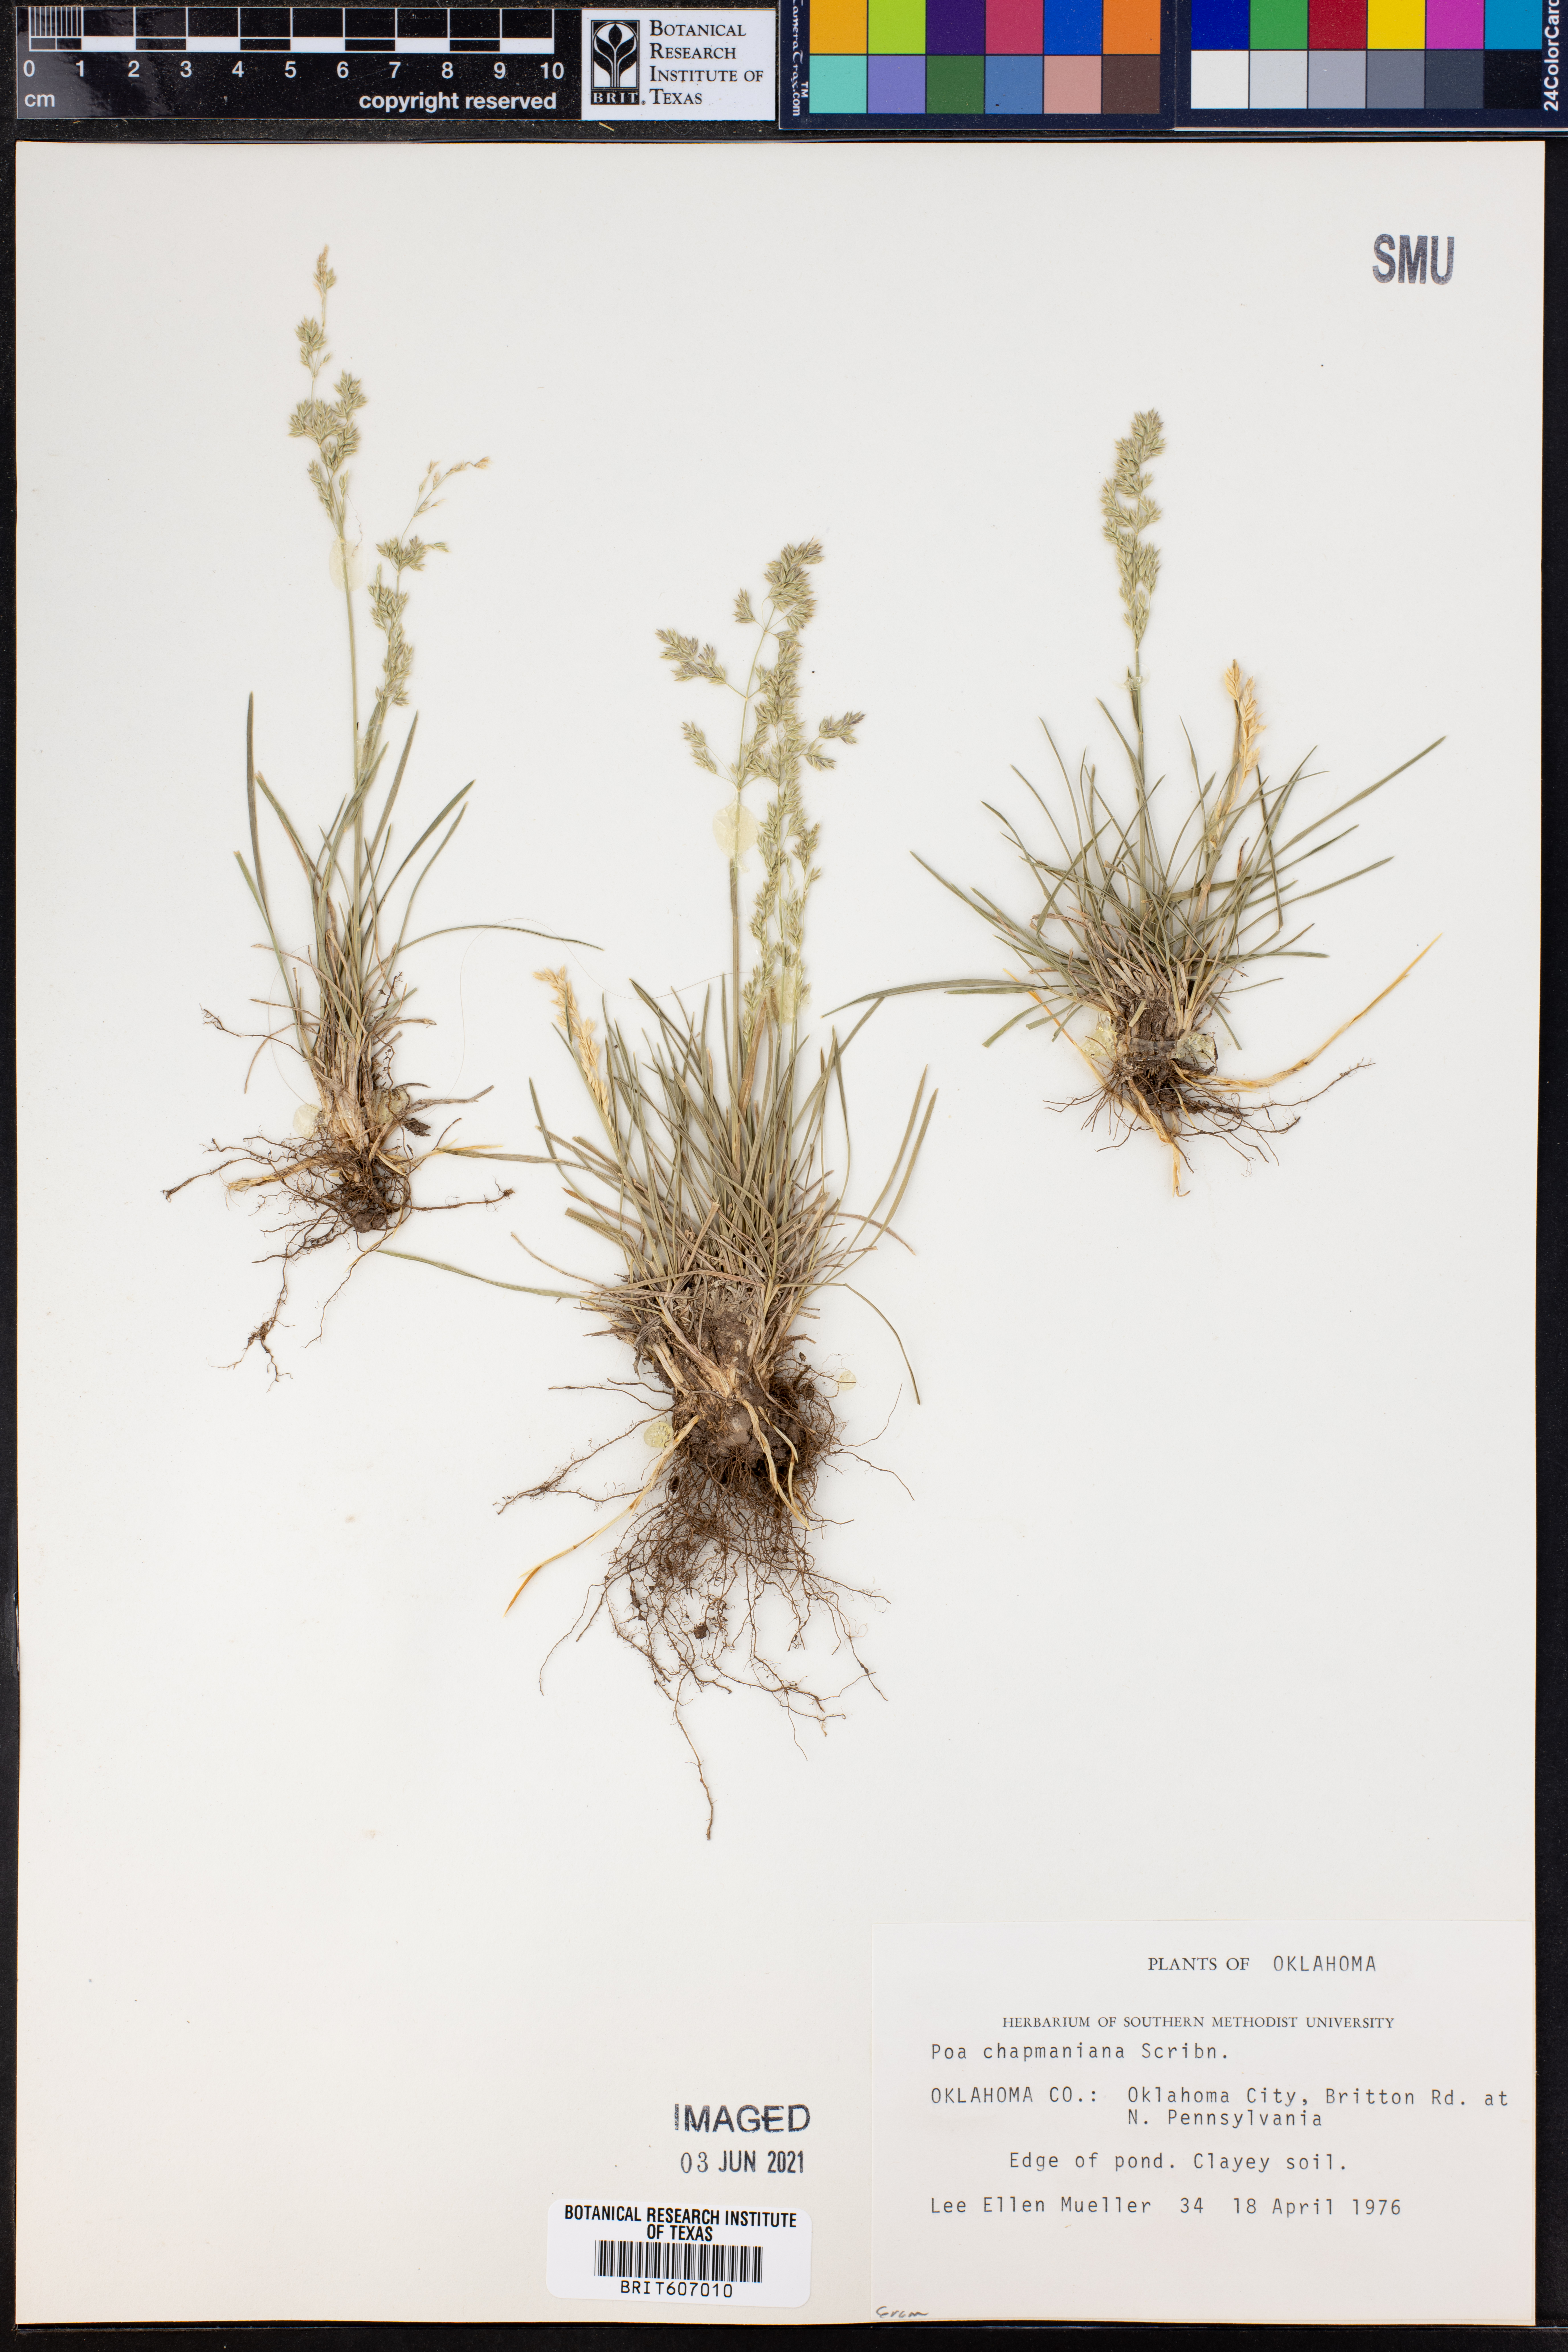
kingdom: Plantae
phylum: Tracheophyta
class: Liliopsida
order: Poales
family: Poaceae
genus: Poa
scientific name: Poa chapmaniana
